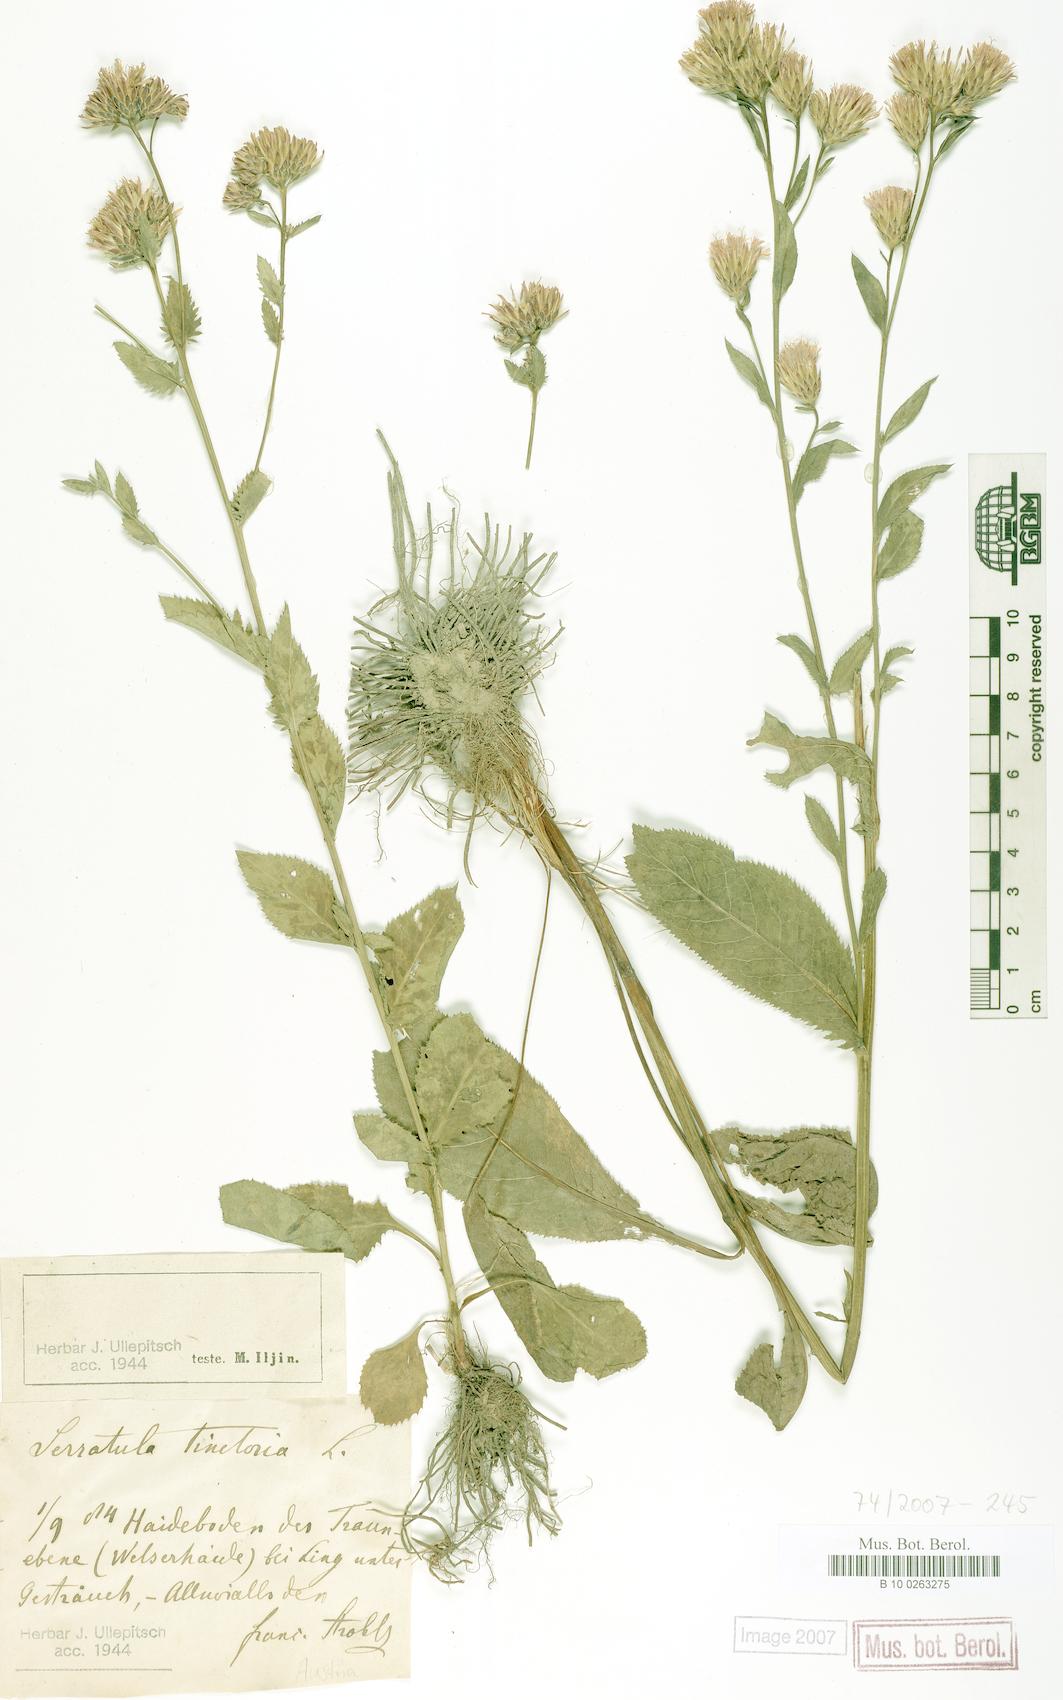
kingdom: Plantae
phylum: Tracheophyta
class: Magnoliopsida
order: Asterales
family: Asteraceae
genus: Serratula
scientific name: Serratula tinctoria
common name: Saw-wort
